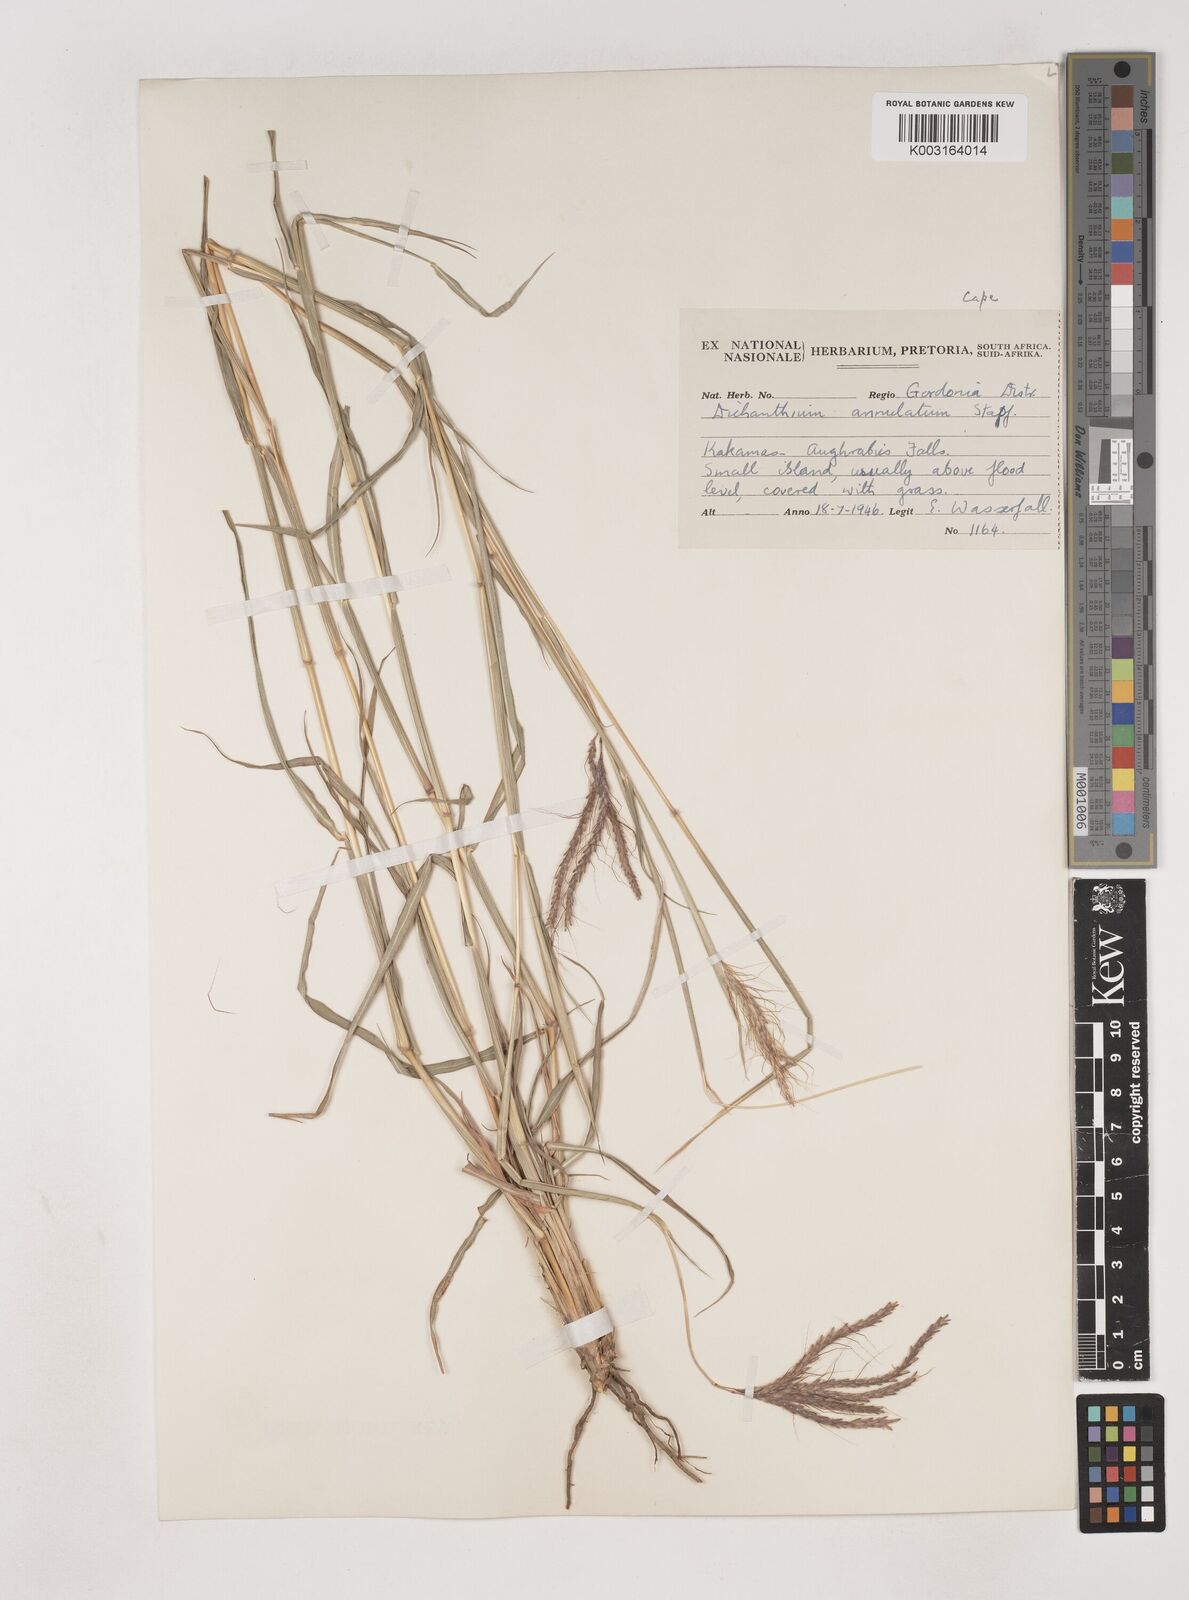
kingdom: Plantae
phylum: Tracheophyta
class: Liliopsida
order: Poales
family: Poaceae
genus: Dichanthium
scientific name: Dichanthium annulatum
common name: Kleberg's bluestem
